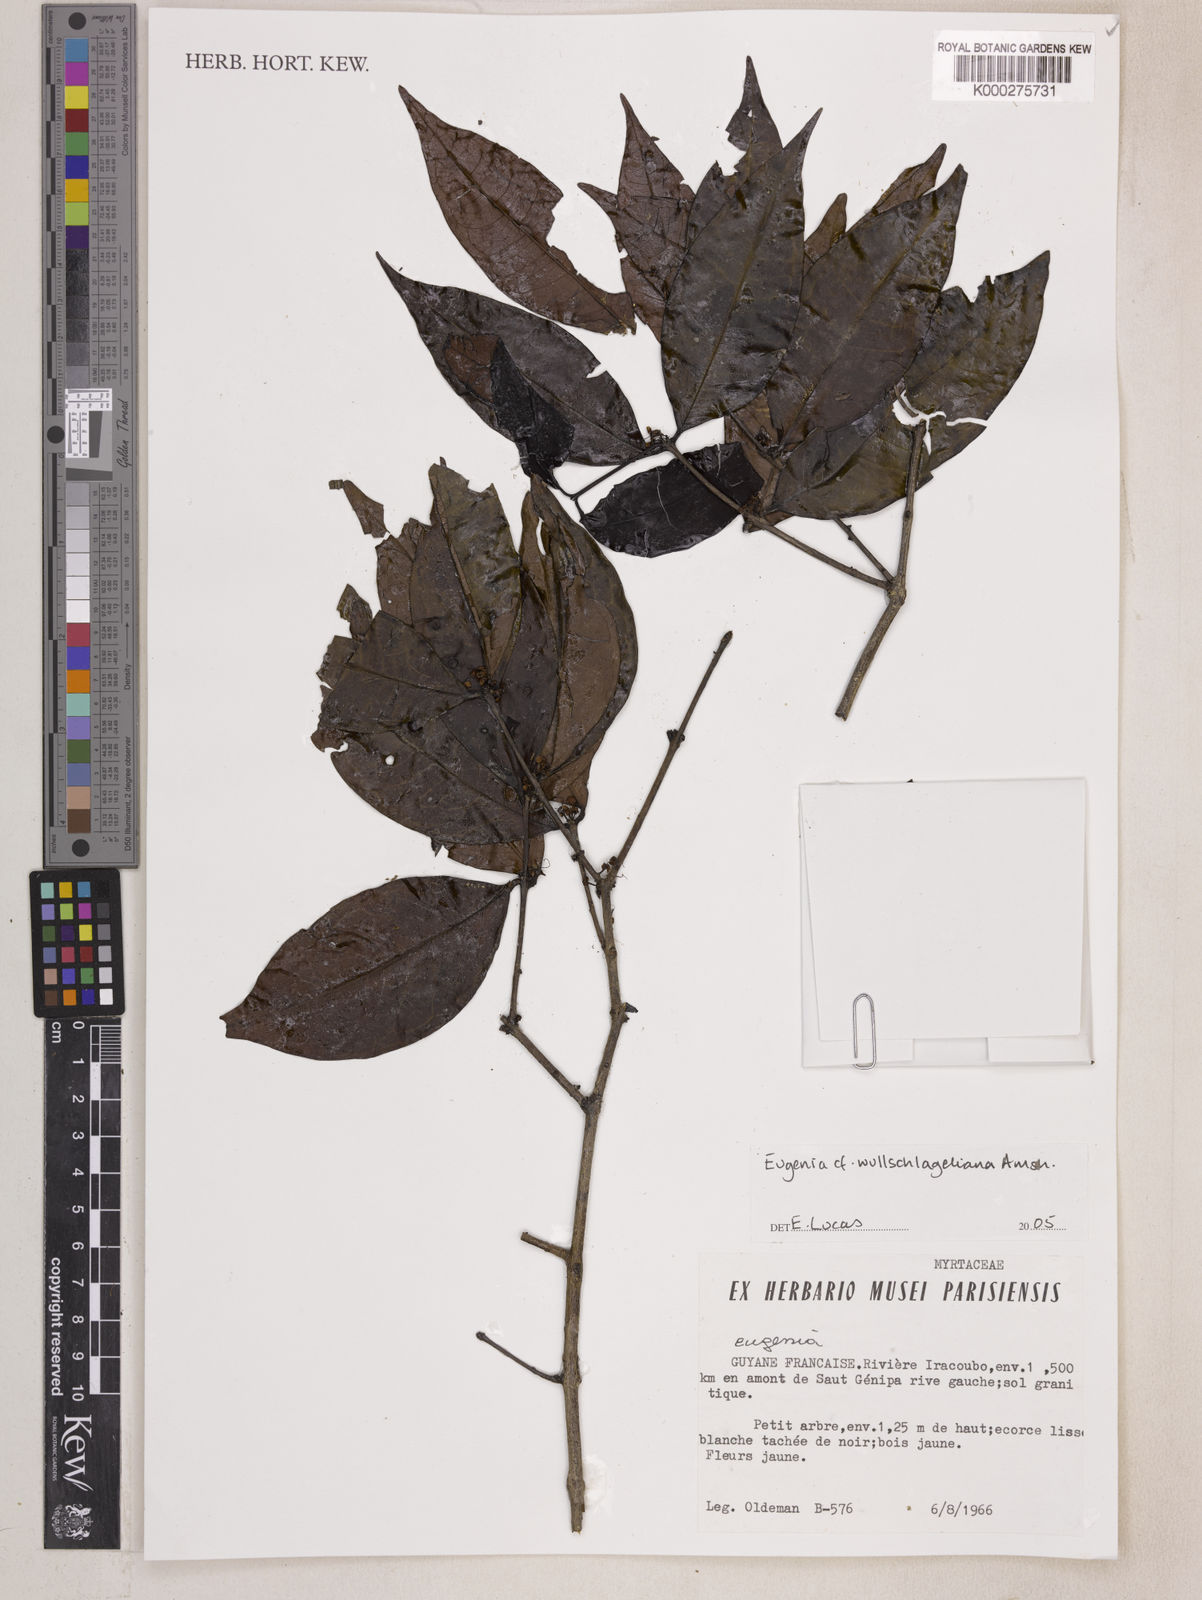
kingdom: Plantae
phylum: Tracheophyta
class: Magnoliopsida
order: Myrtales
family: Myrtaceae
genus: Eugenia
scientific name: Eugenia
